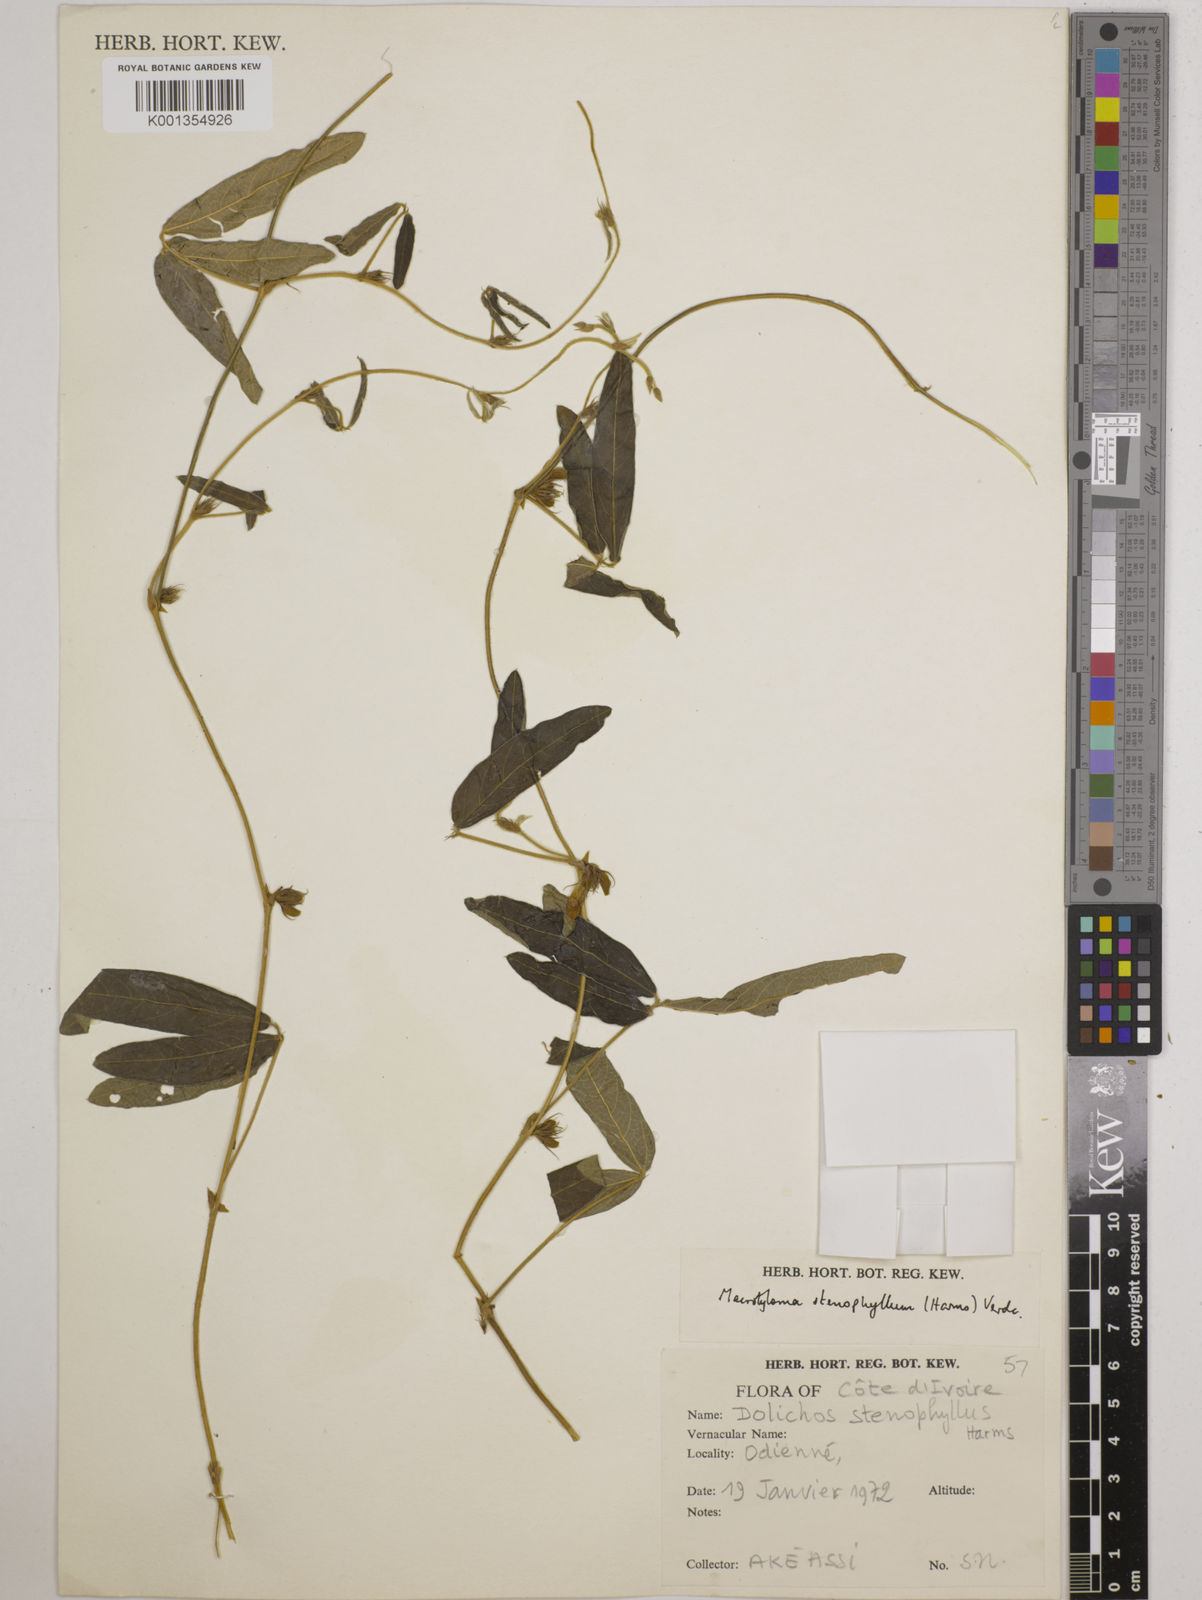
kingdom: Plantae
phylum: Tracheophyta
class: Magnoliopsida
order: Fabales
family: Fabaceae
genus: Macrotyloma
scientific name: Macrotyloma stenophyllum
